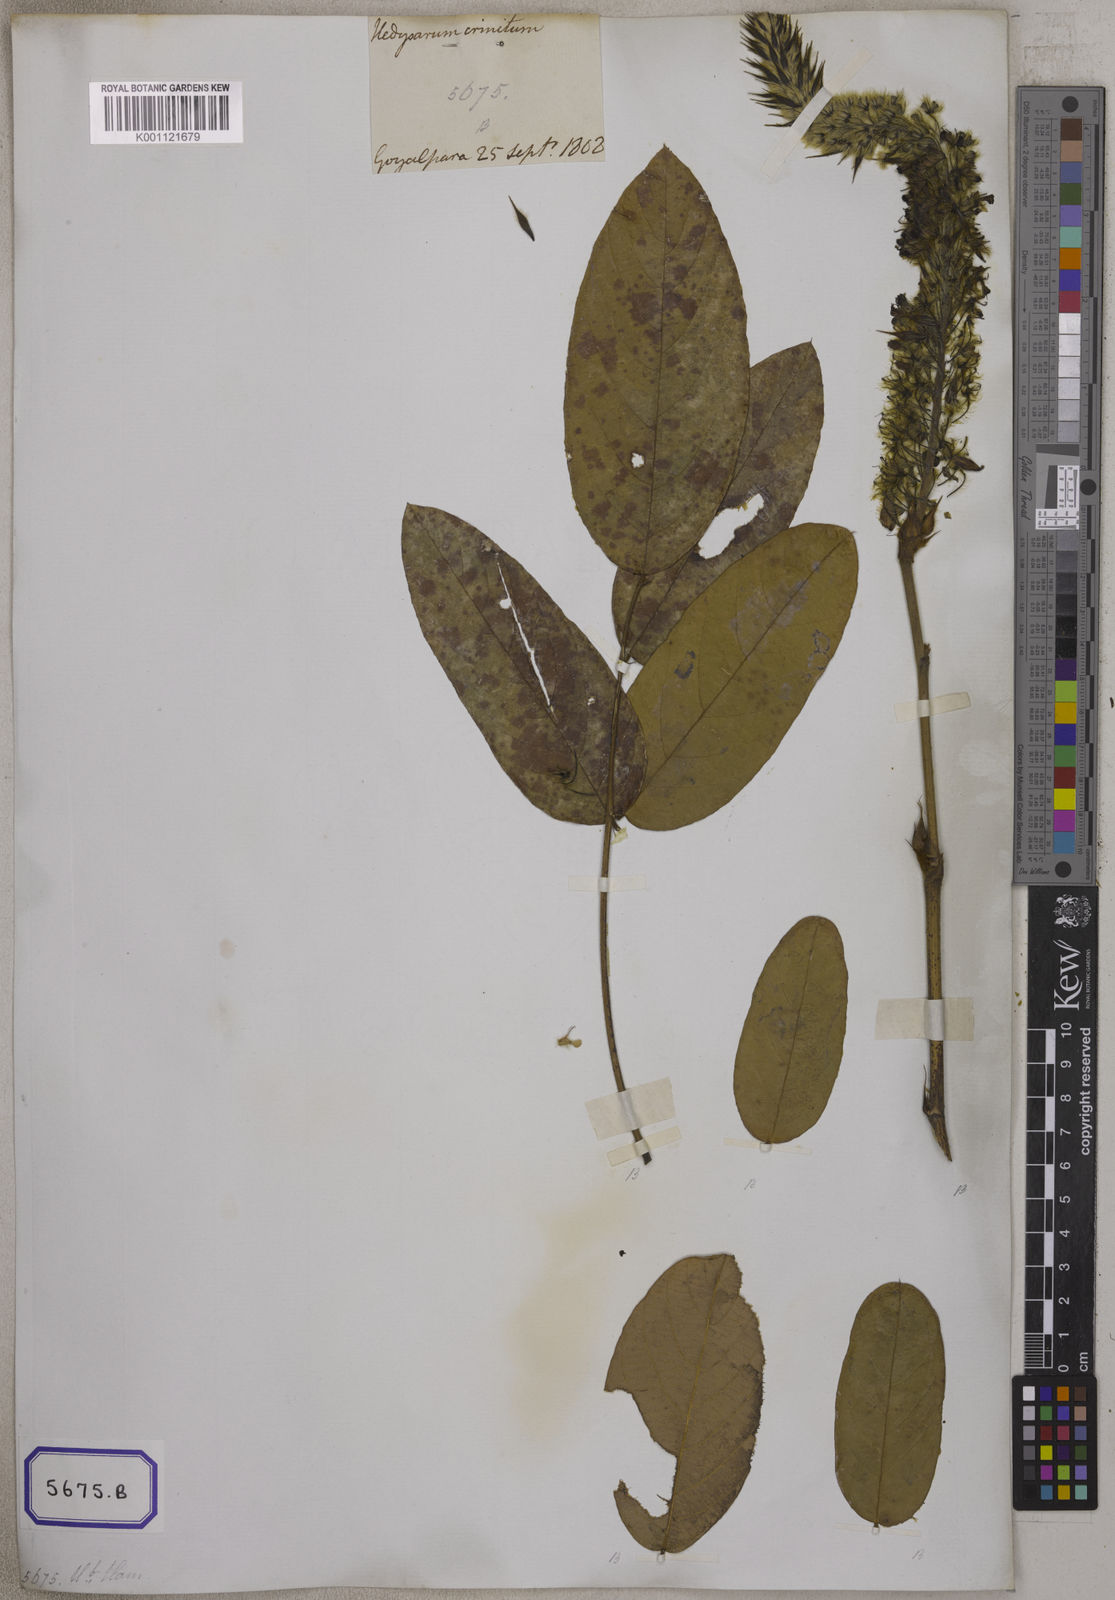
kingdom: Plantae
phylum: Tracheophyta
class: Magnoliopsida
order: Fabales
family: Fabaceae
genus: Uraria
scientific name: Uraria
